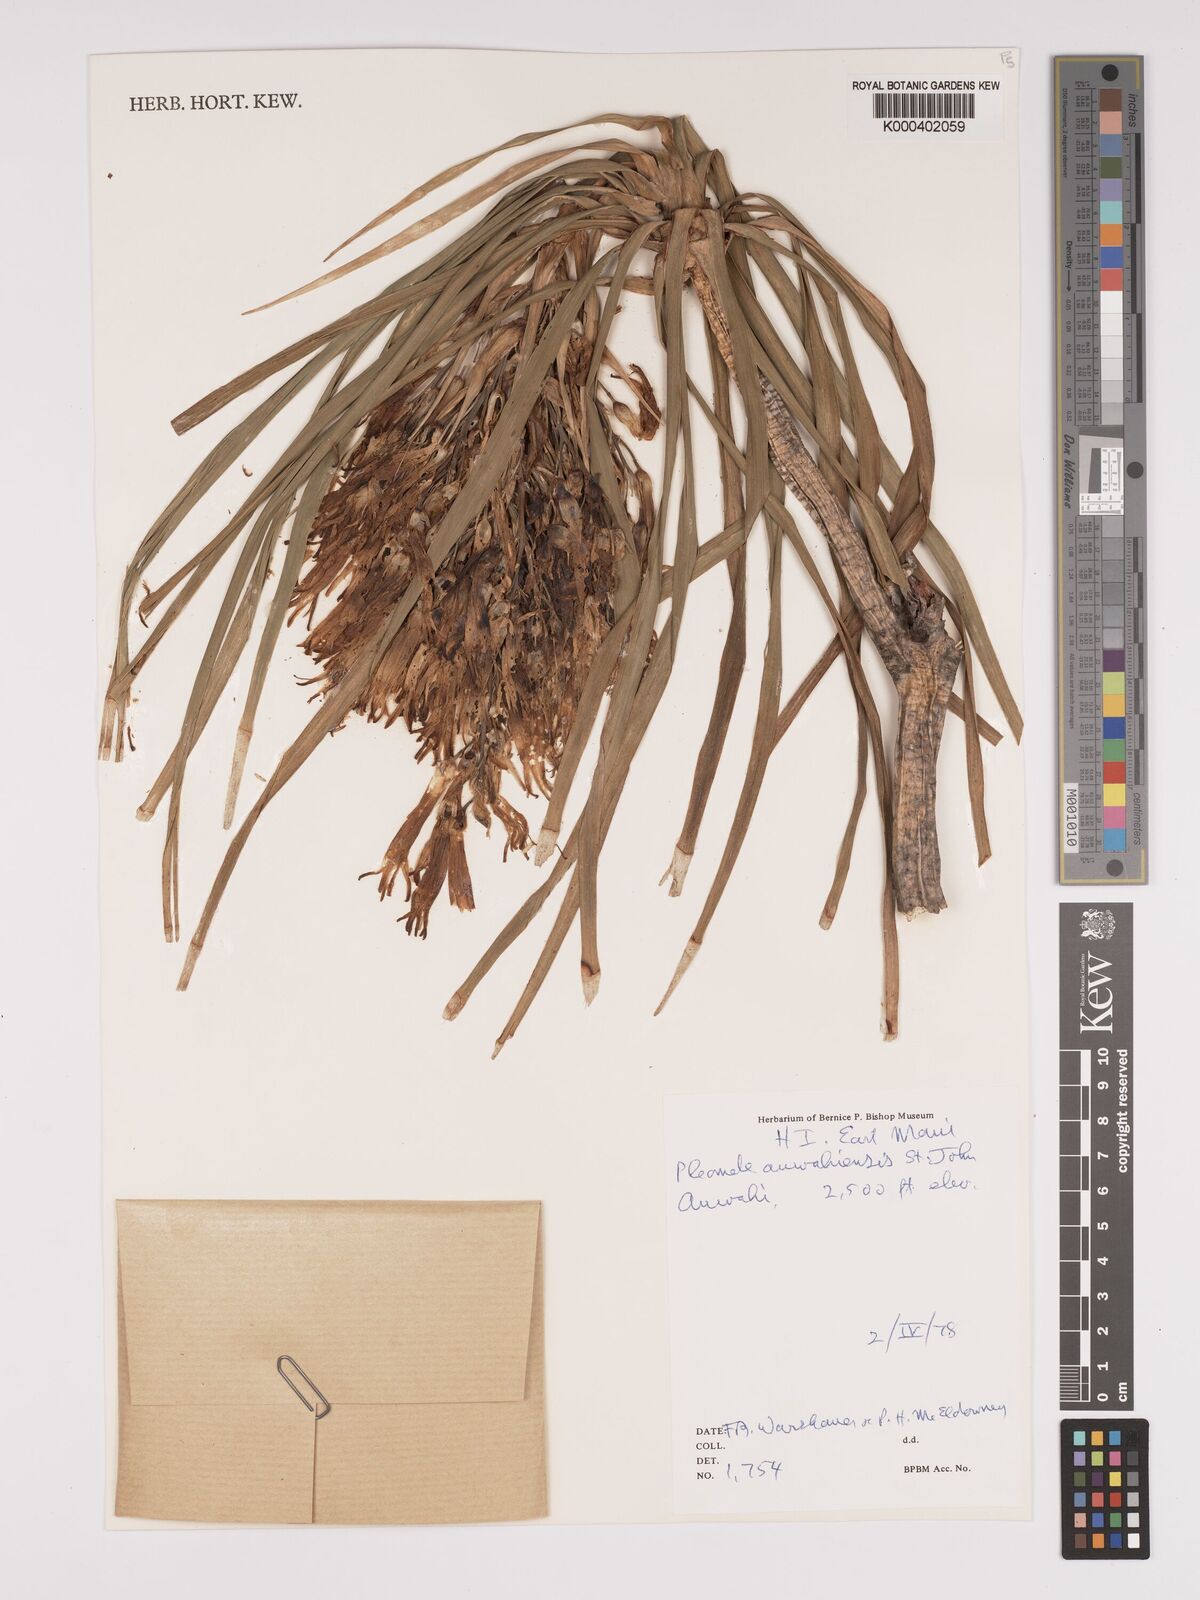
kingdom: Plantae
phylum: Tracheophyta
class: Liliopsida
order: Asparagales
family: Asparagaceae
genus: Dracaena
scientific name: Dracaena rockii
